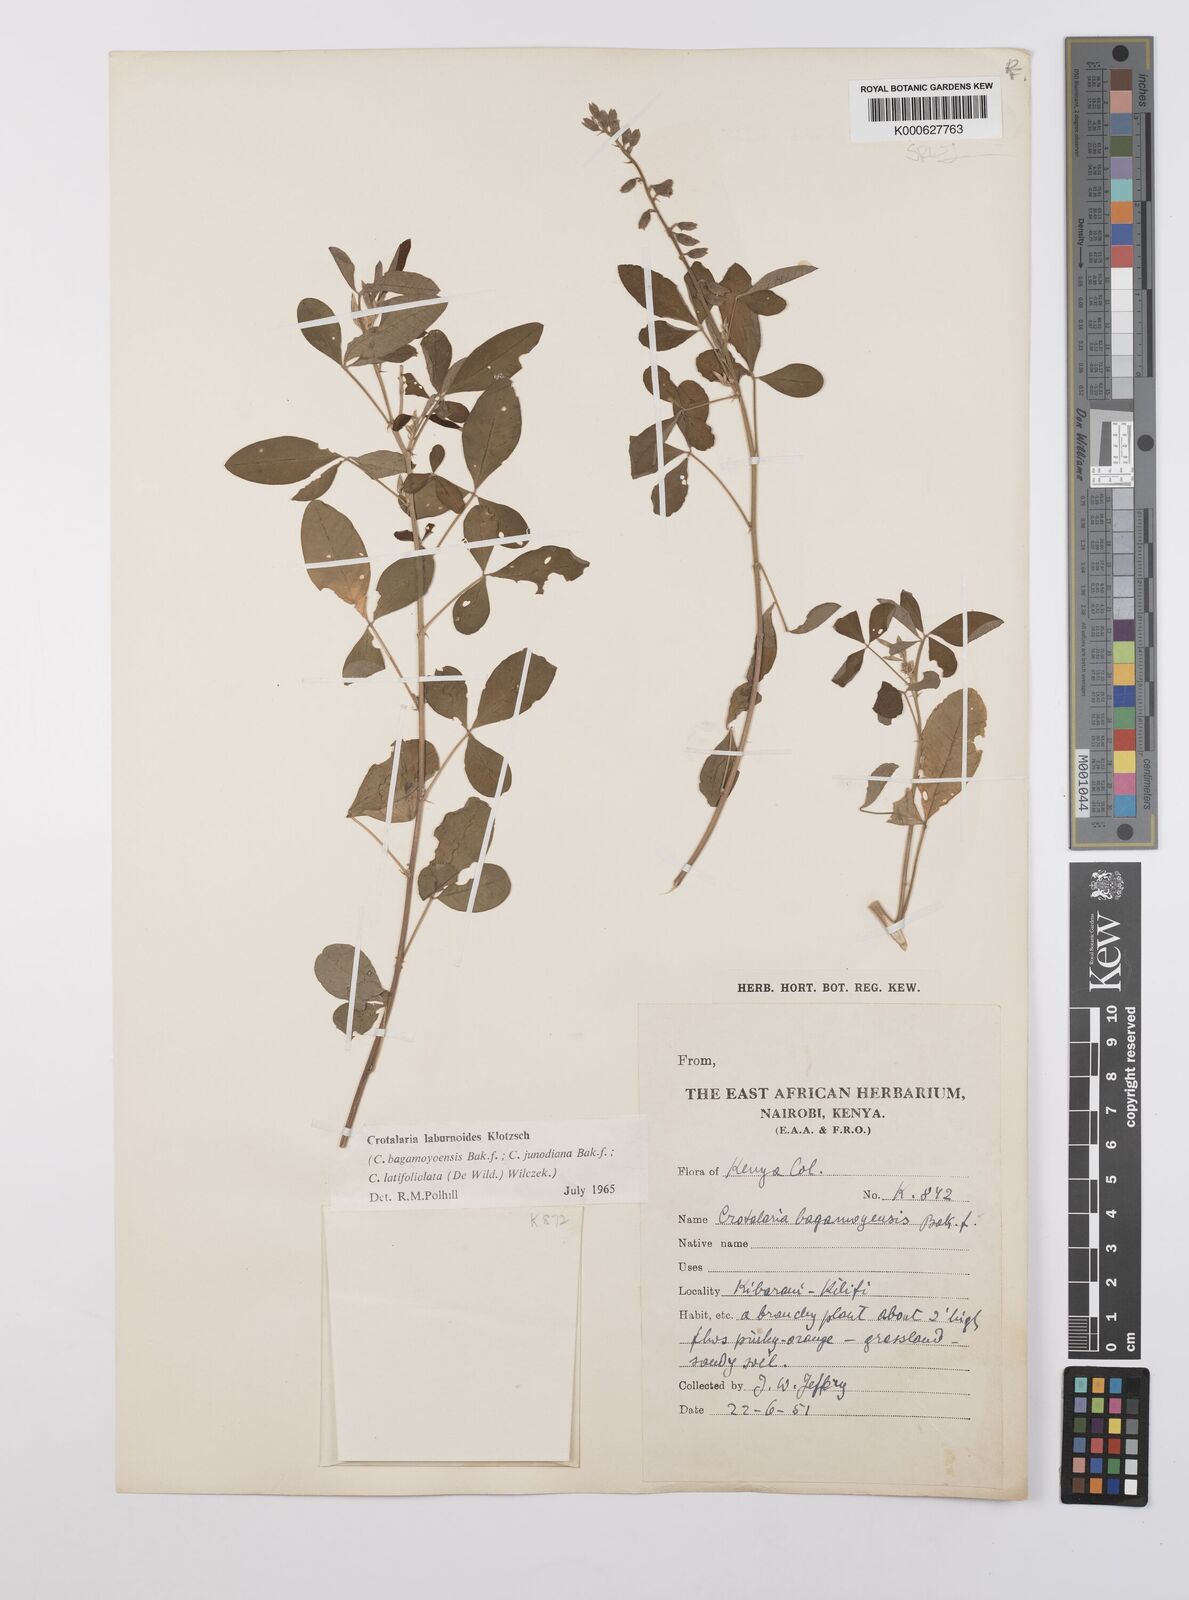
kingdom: Plantae
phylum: Tracheophyta
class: Magnoliopsida
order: Fabales
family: Fabaceae
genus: Crotalaria
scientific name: Crotalaria laburnoides
